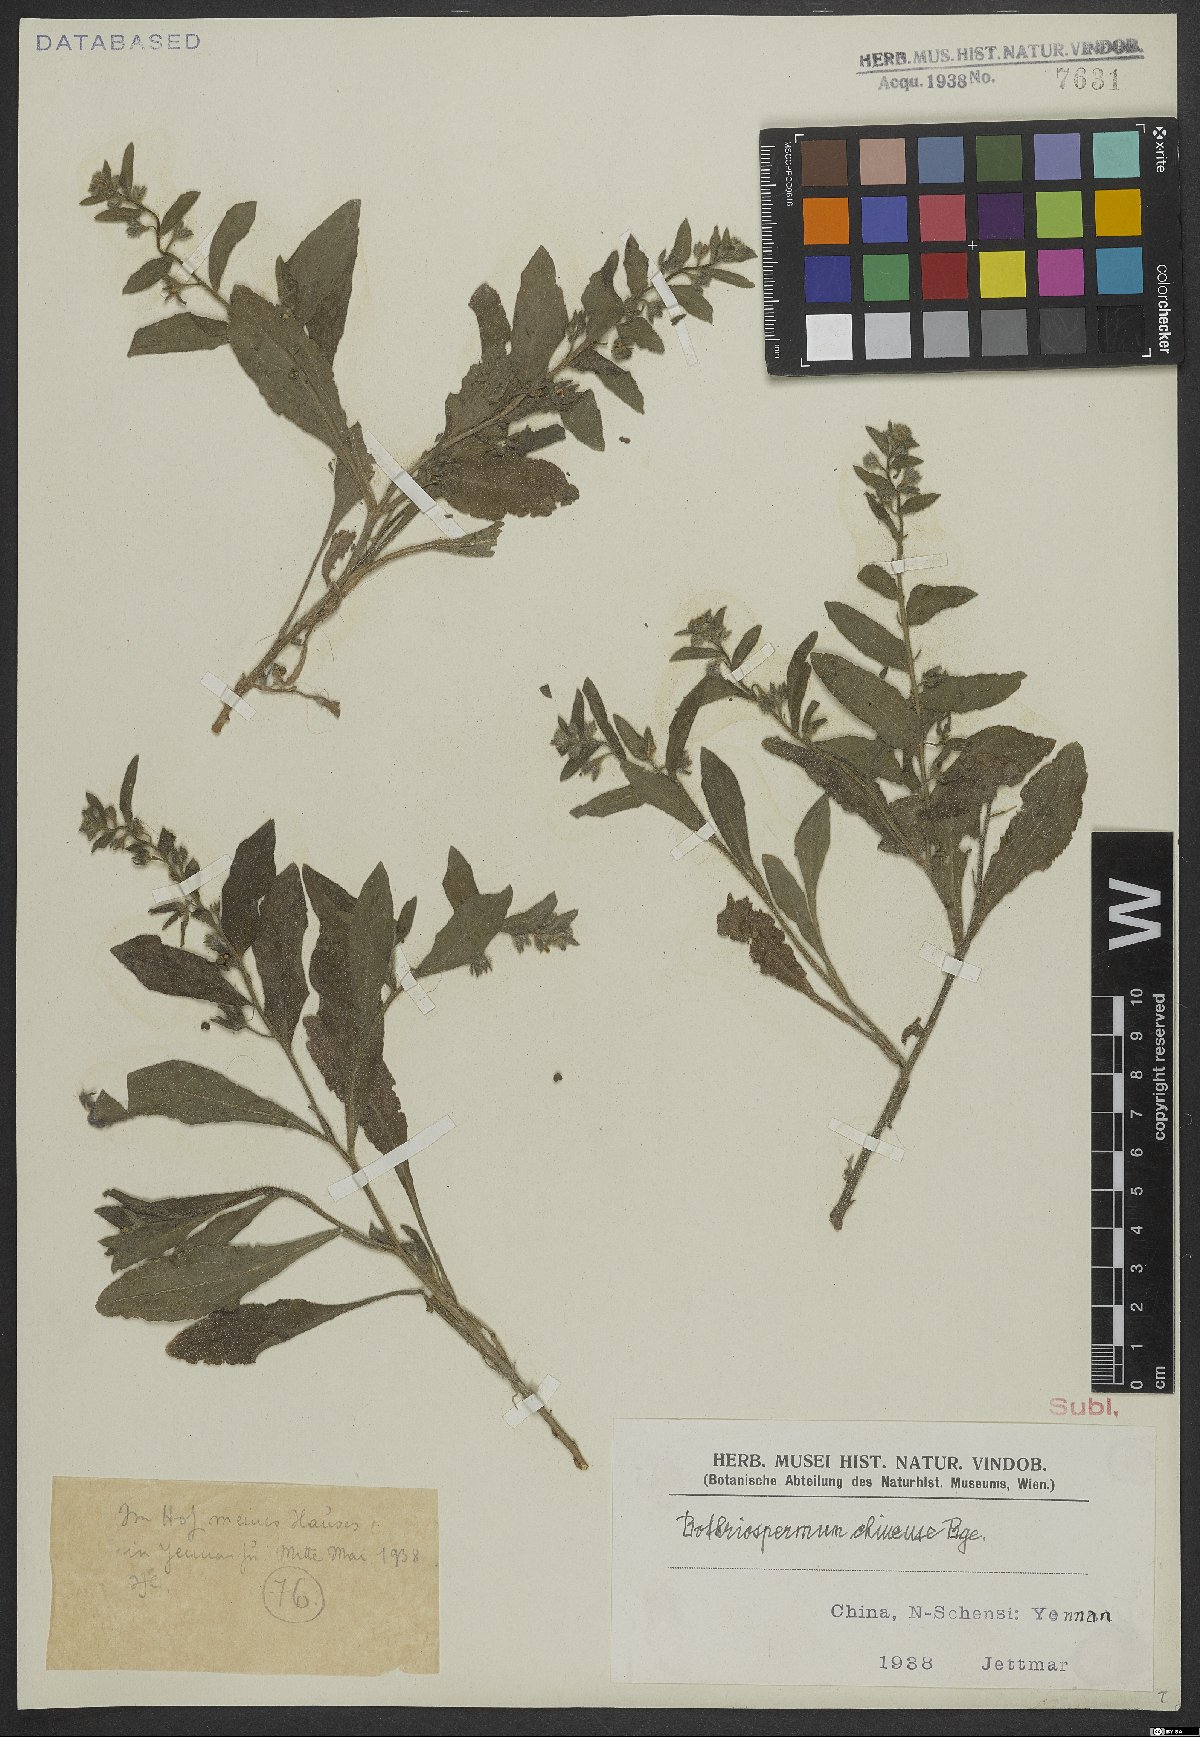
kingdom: Plantae
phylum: Tracheophyta
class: Magnoliopsida
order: Boraginales
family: Boraginaceae
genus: Bothriospermum
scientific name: Bothriospermum chinense
